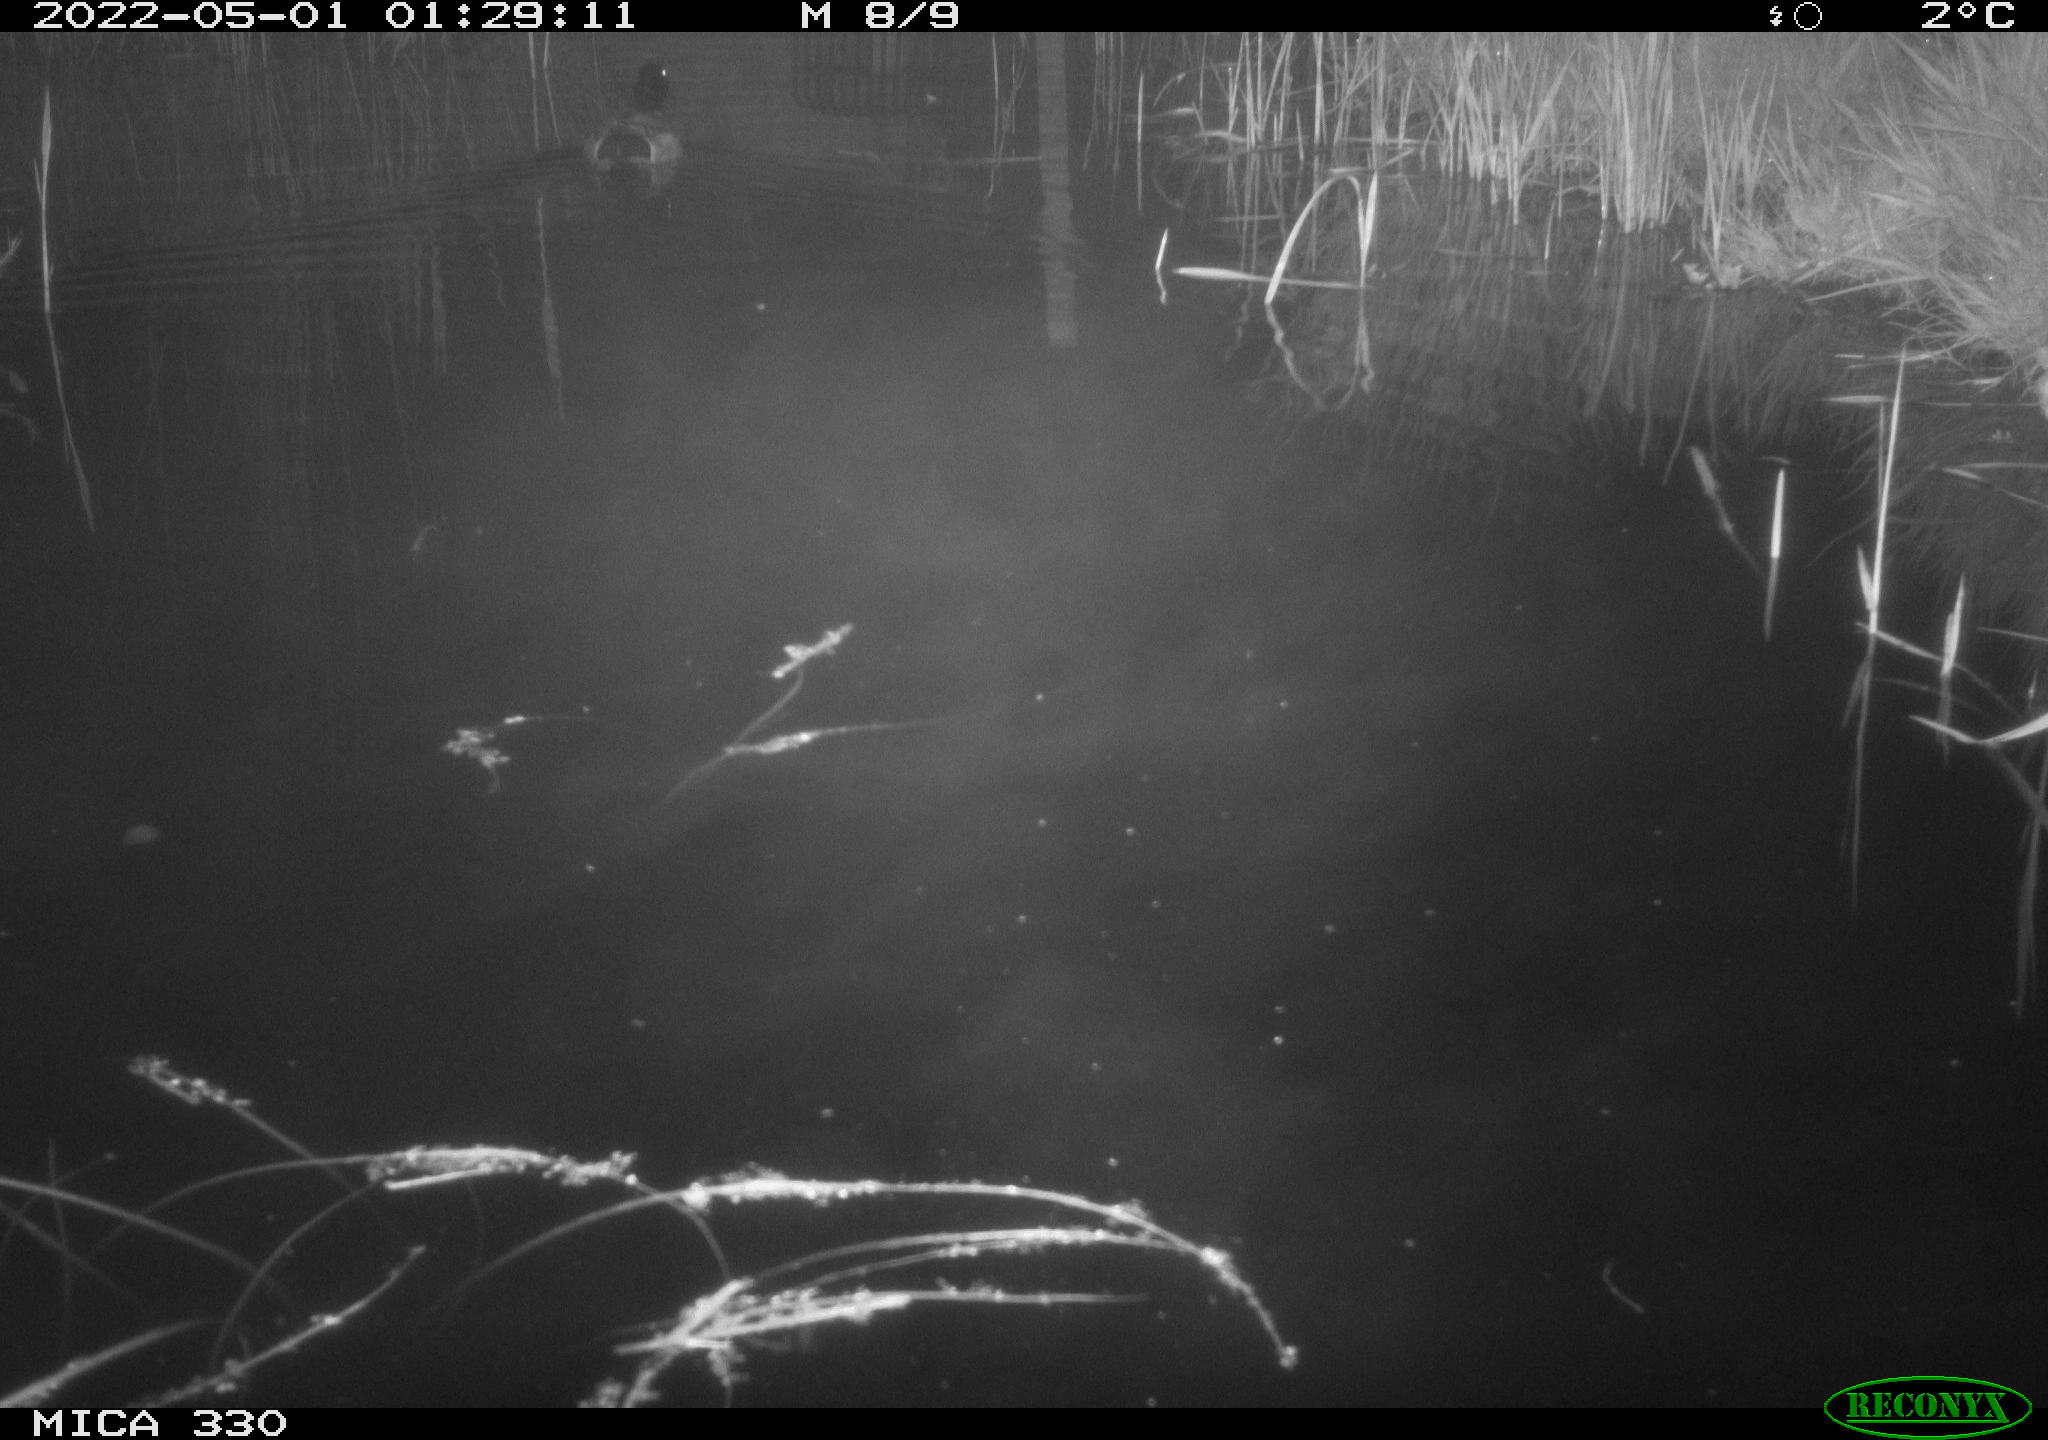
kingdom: Animalia
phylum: Chordata
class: Aves
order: Anseriformes
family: Anatidae
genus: Anas
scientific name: Anas platyrhynchos
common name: Mallard
